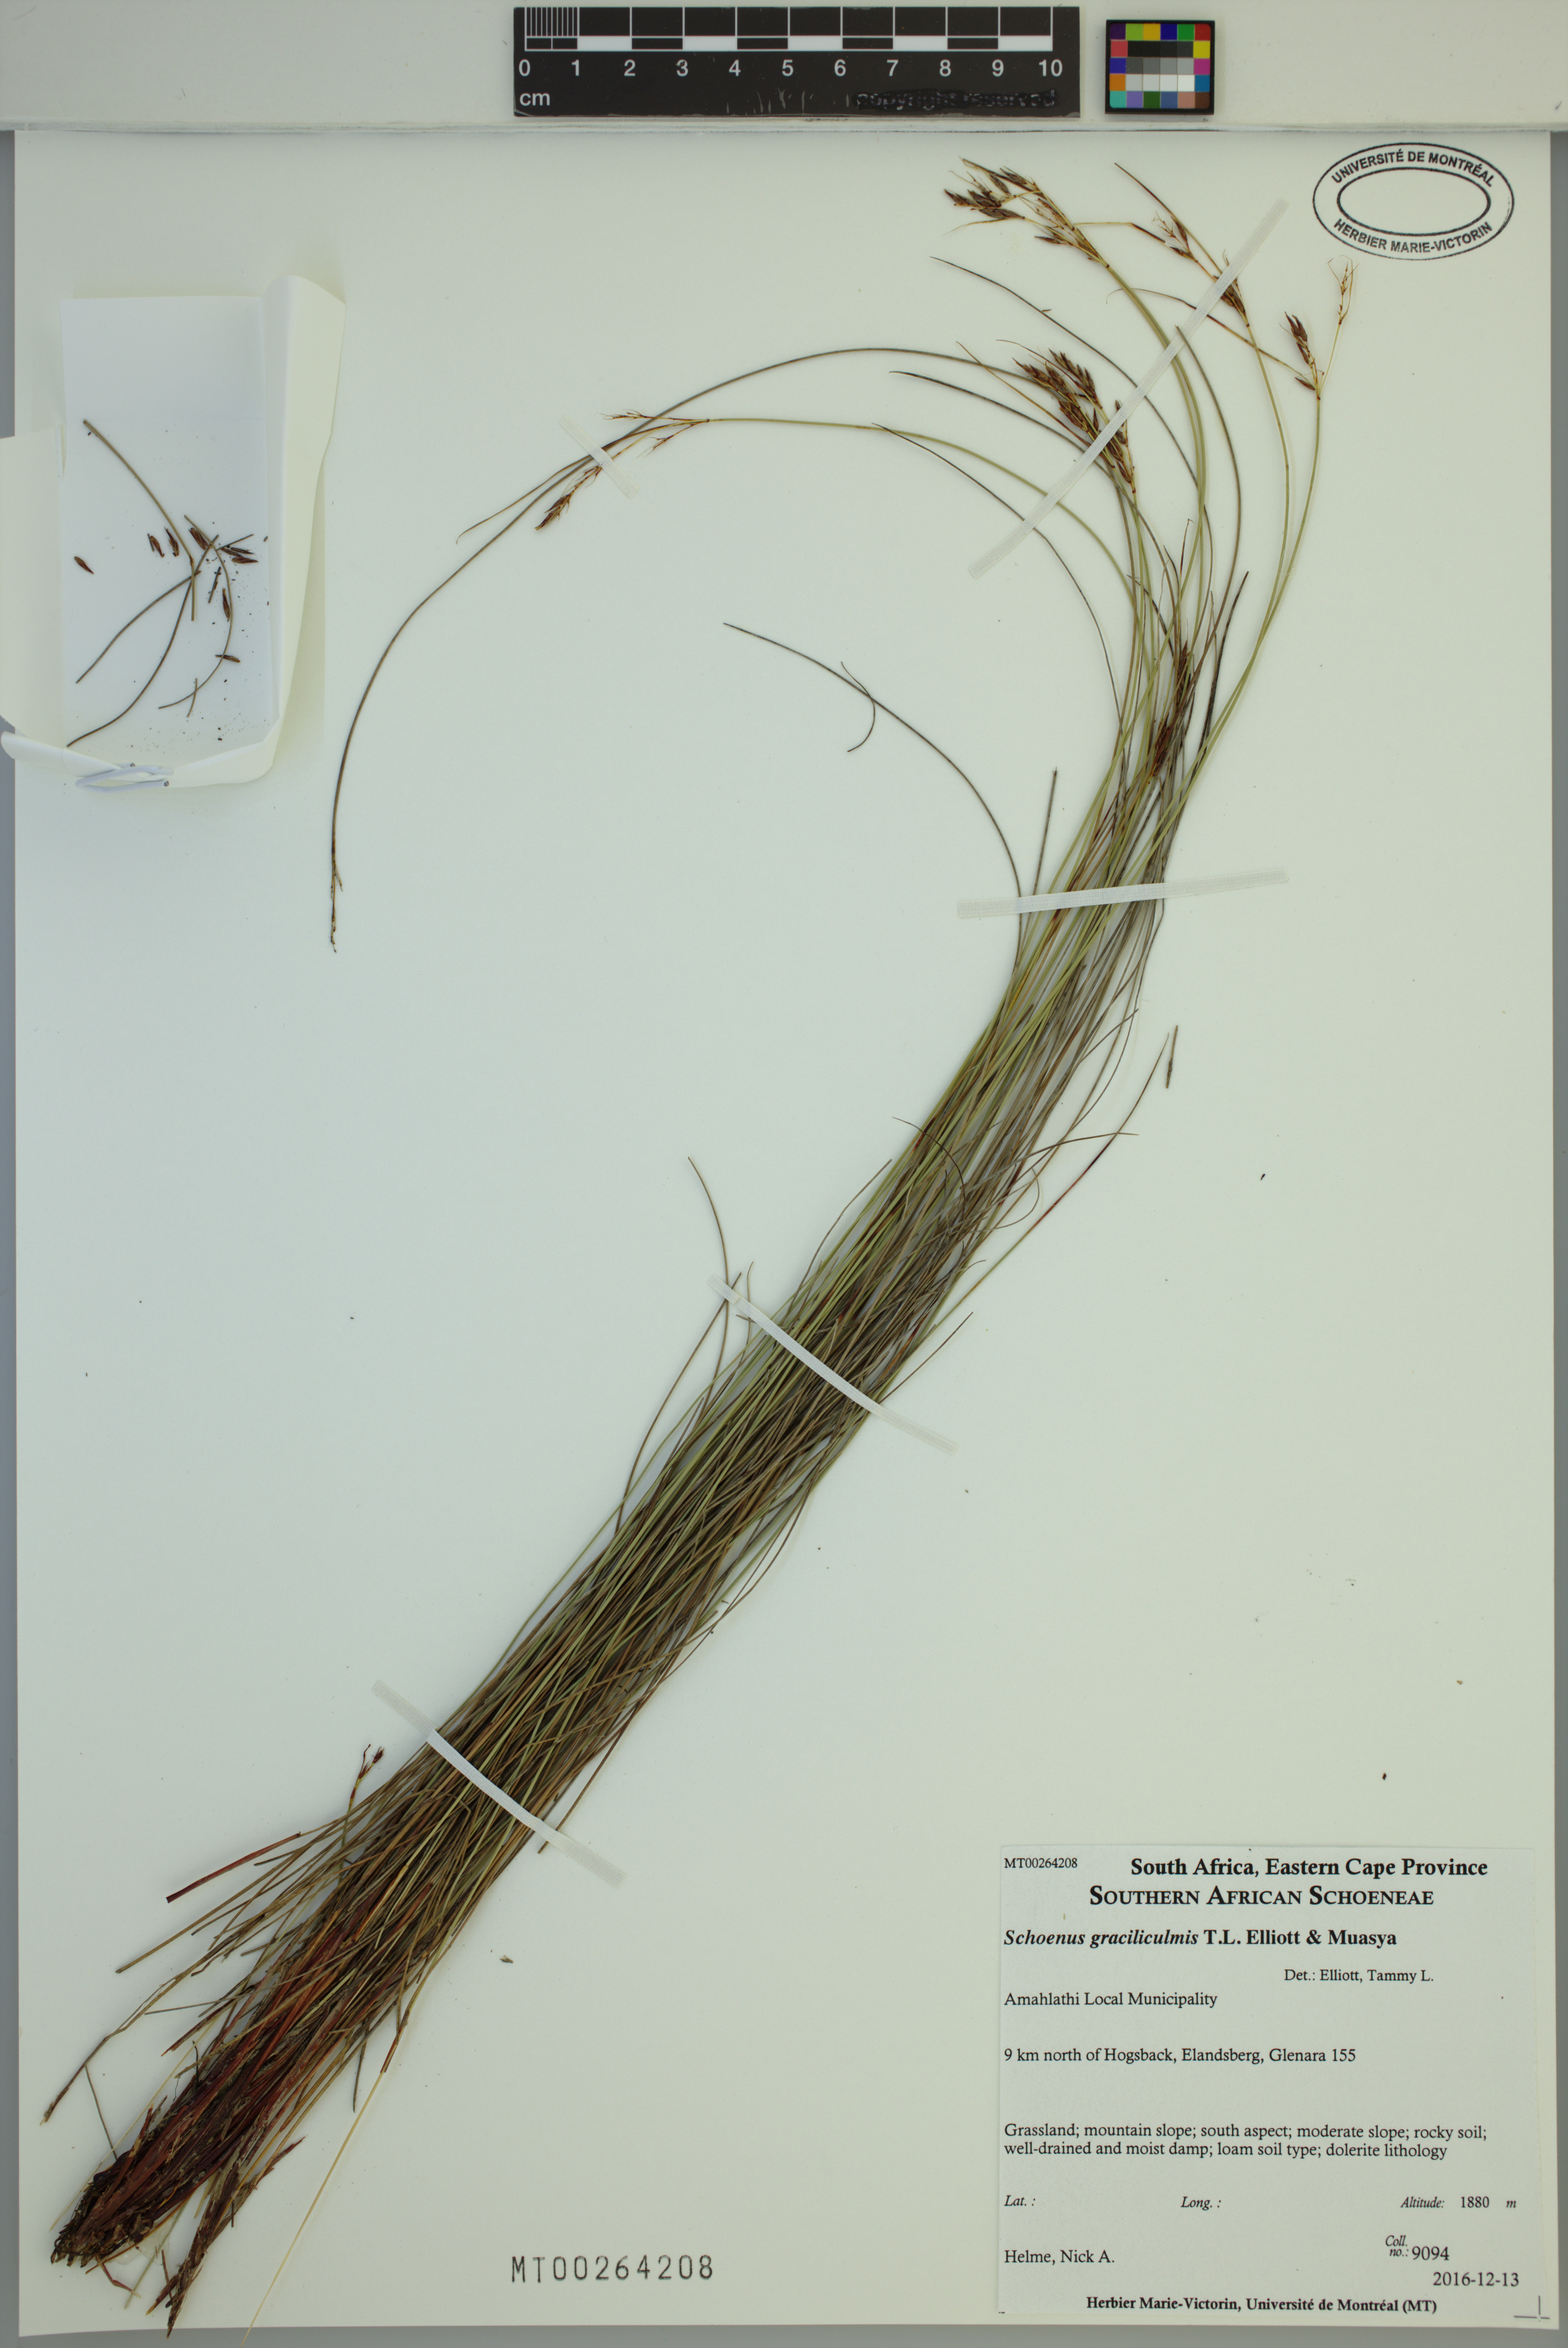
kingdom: Plantae
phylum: Tracheophyta
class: Liliopsida
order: Poales
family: Cyperaceae
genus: Schoenus
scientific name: Schoenus graciliculmis
